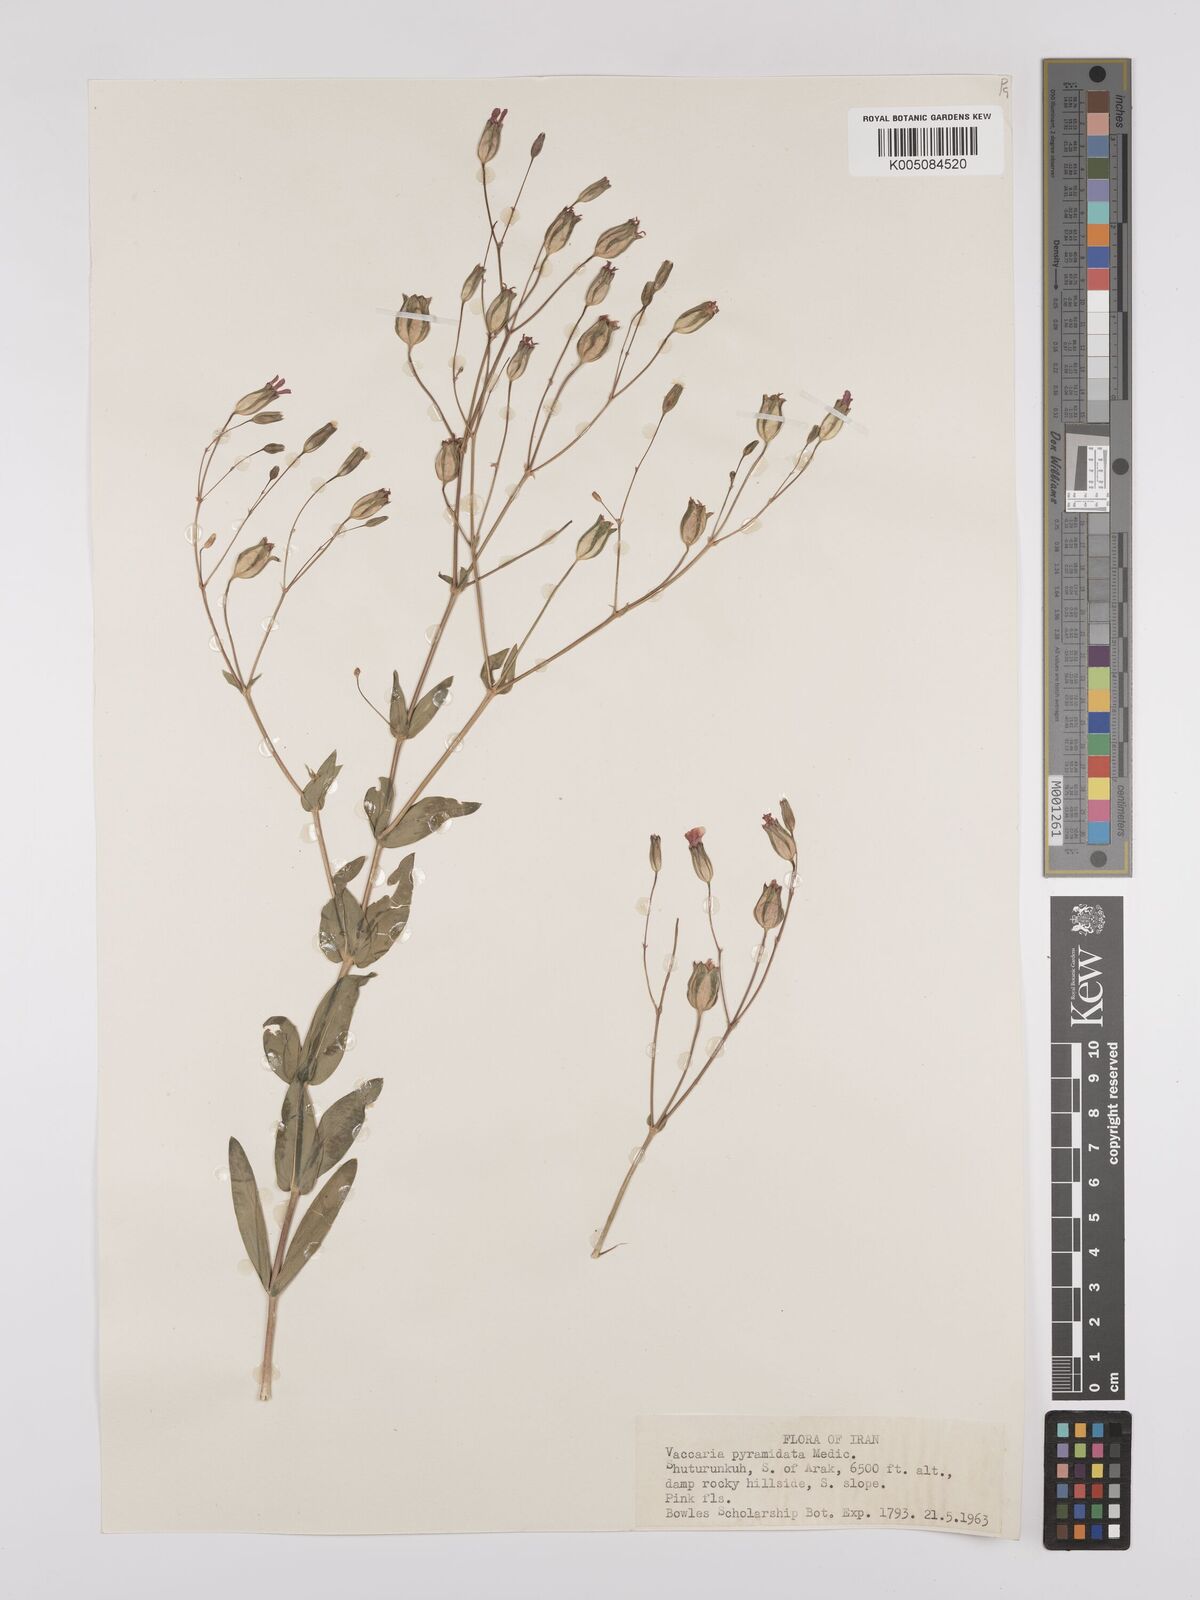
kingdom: Plantae
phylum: Tracheophyta
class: Magnoliopsida
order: Caryophyllales
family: Caryophyllaceae
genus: Gypsophila
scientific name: Gypsophila vaccaria
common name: Cow soapwort
